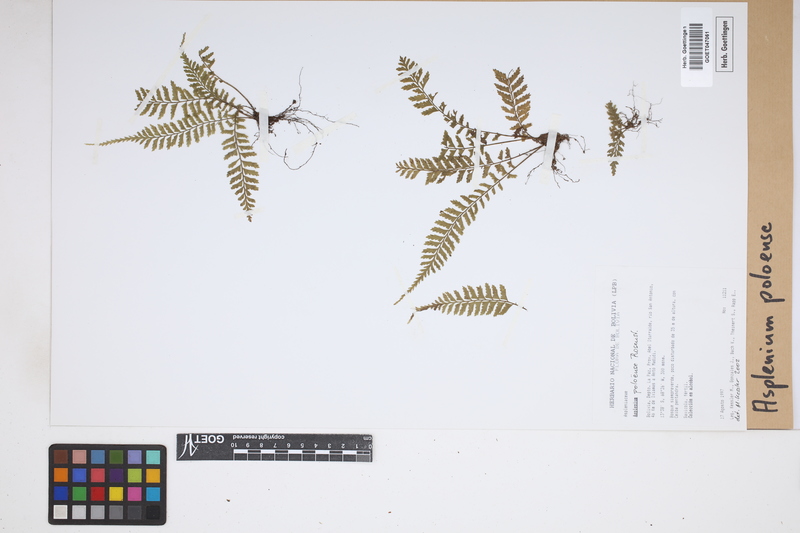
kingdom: Plantae
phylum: Tracheophyta
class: Polypodiopsida
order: Polypodiales
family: Aspleniaceae
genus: Asplenium
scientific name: Asplenium poloense
